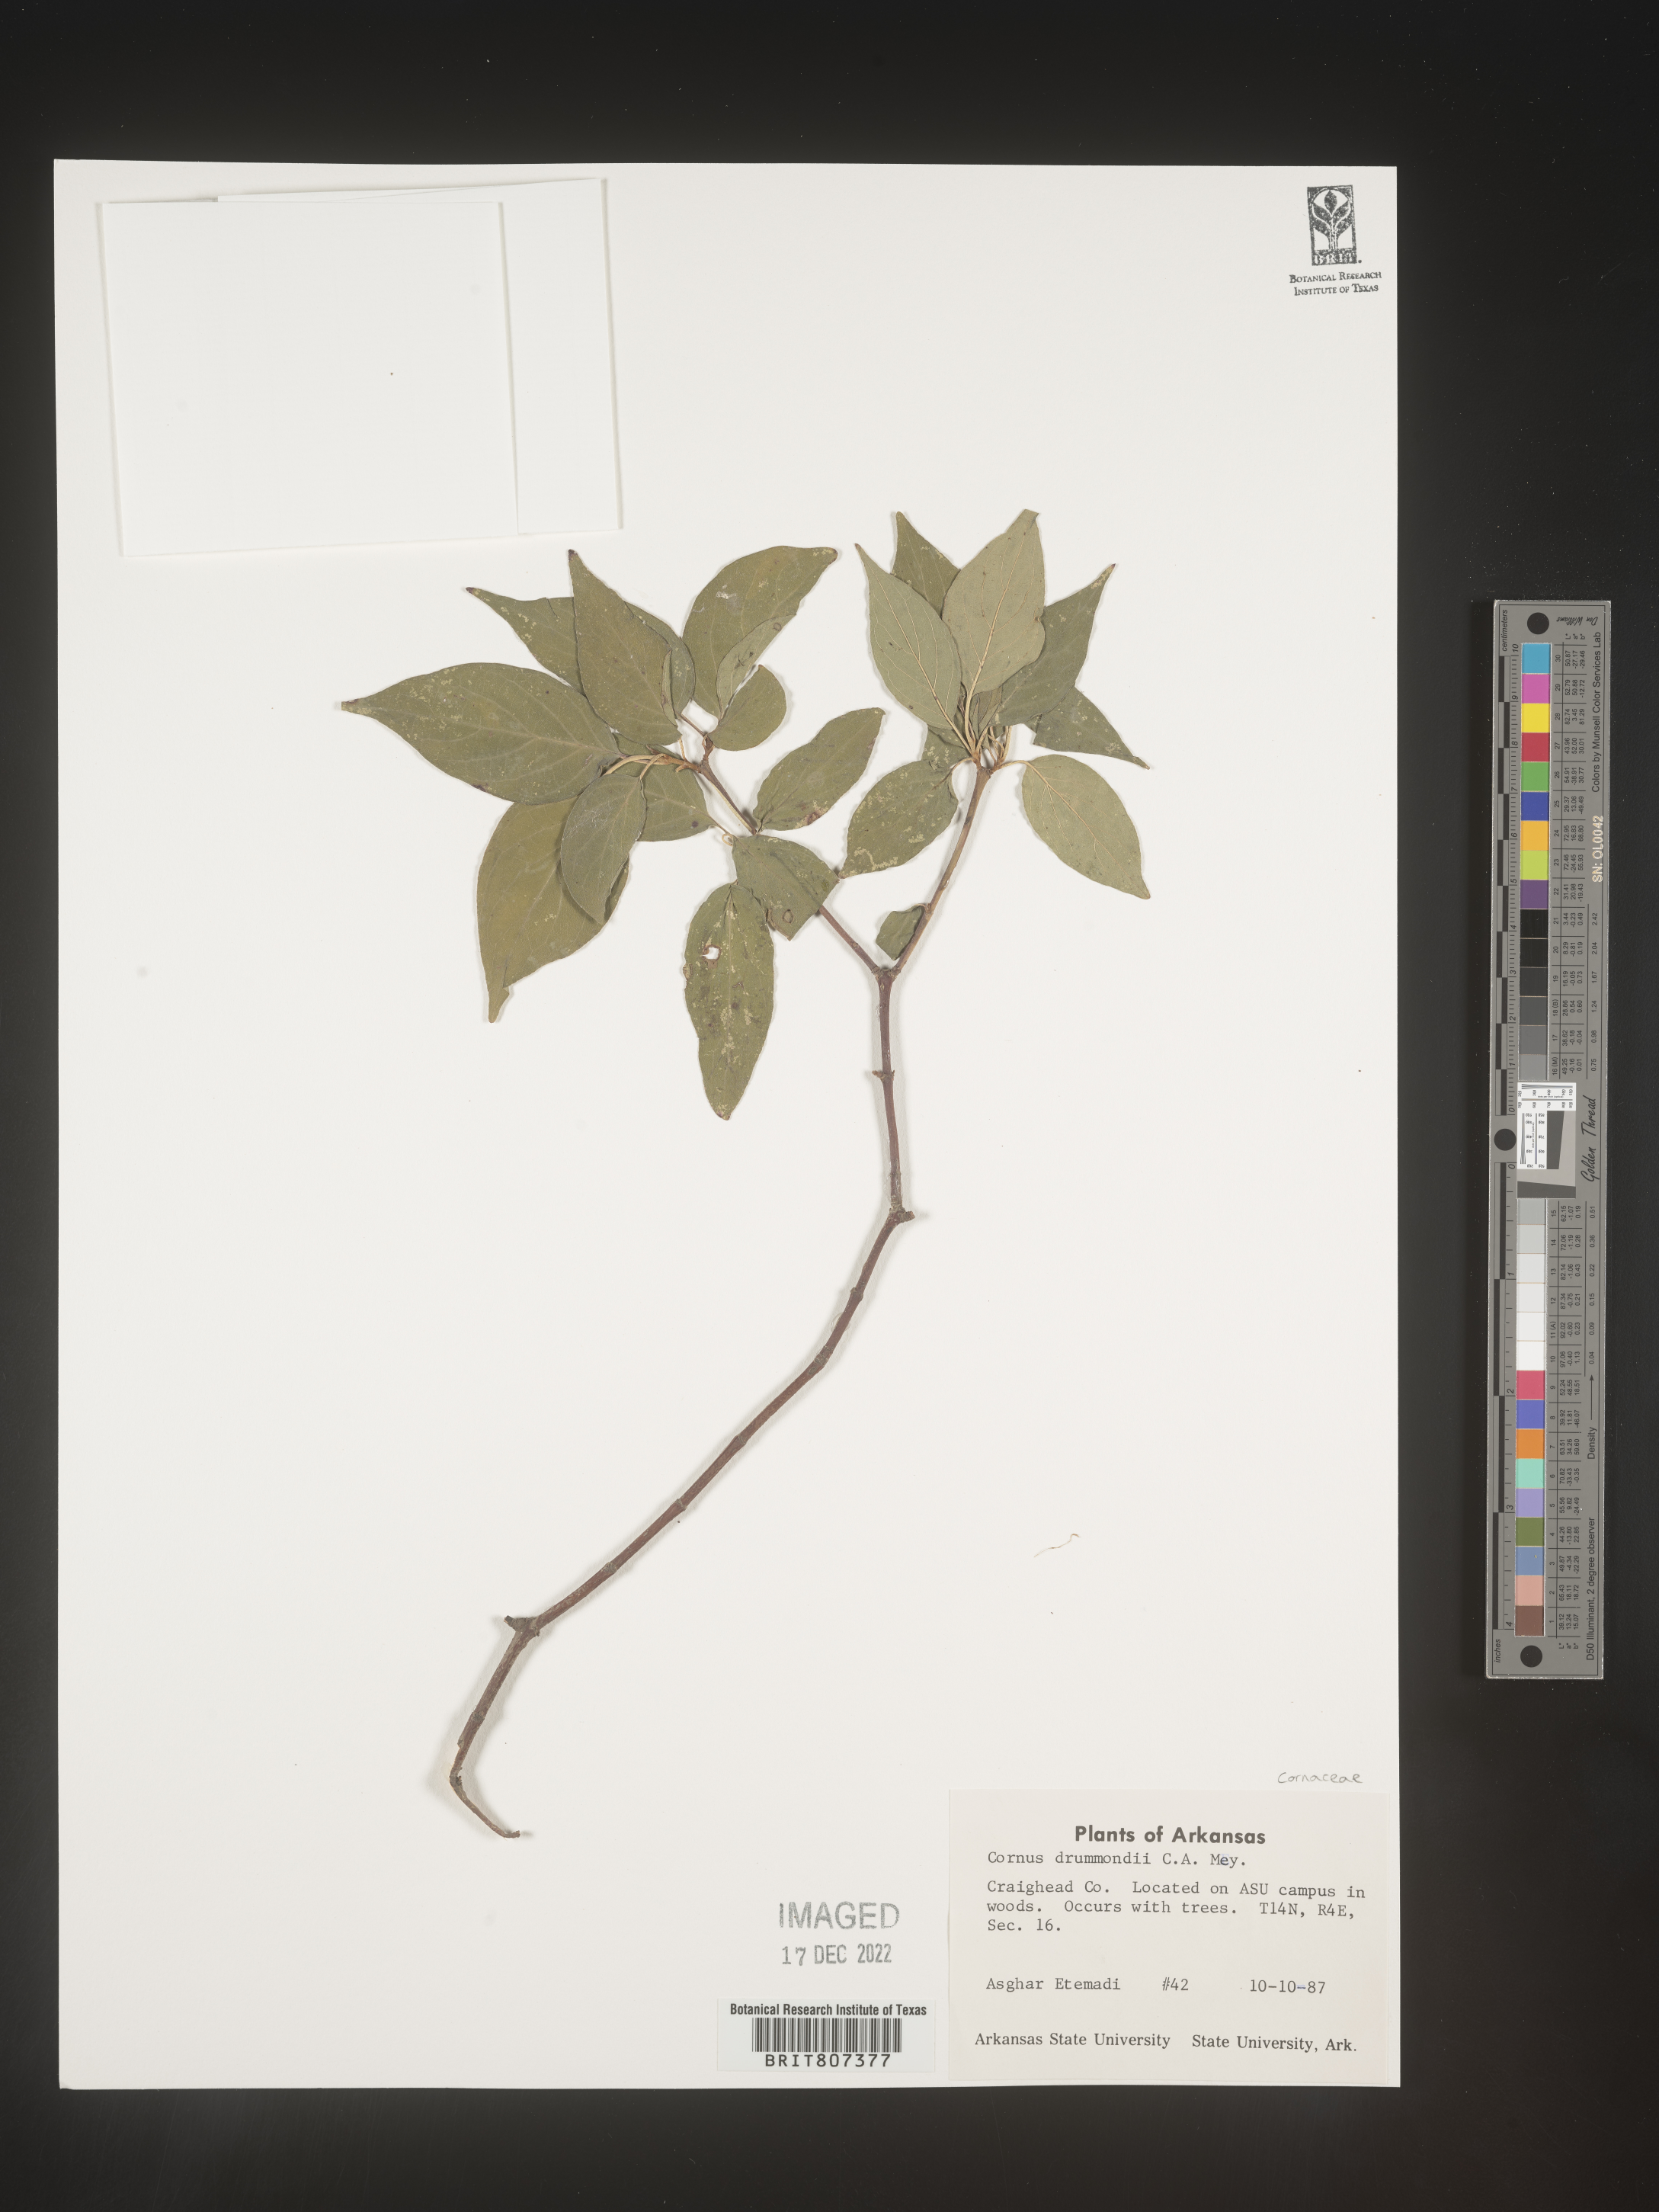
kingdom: Plantae
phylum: Tracheophyta
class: Magnoliopsida
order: Cornales
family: Cornaceae
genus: Cornus
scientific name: Cornus drummondii
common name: Rough-leaf dogwood
